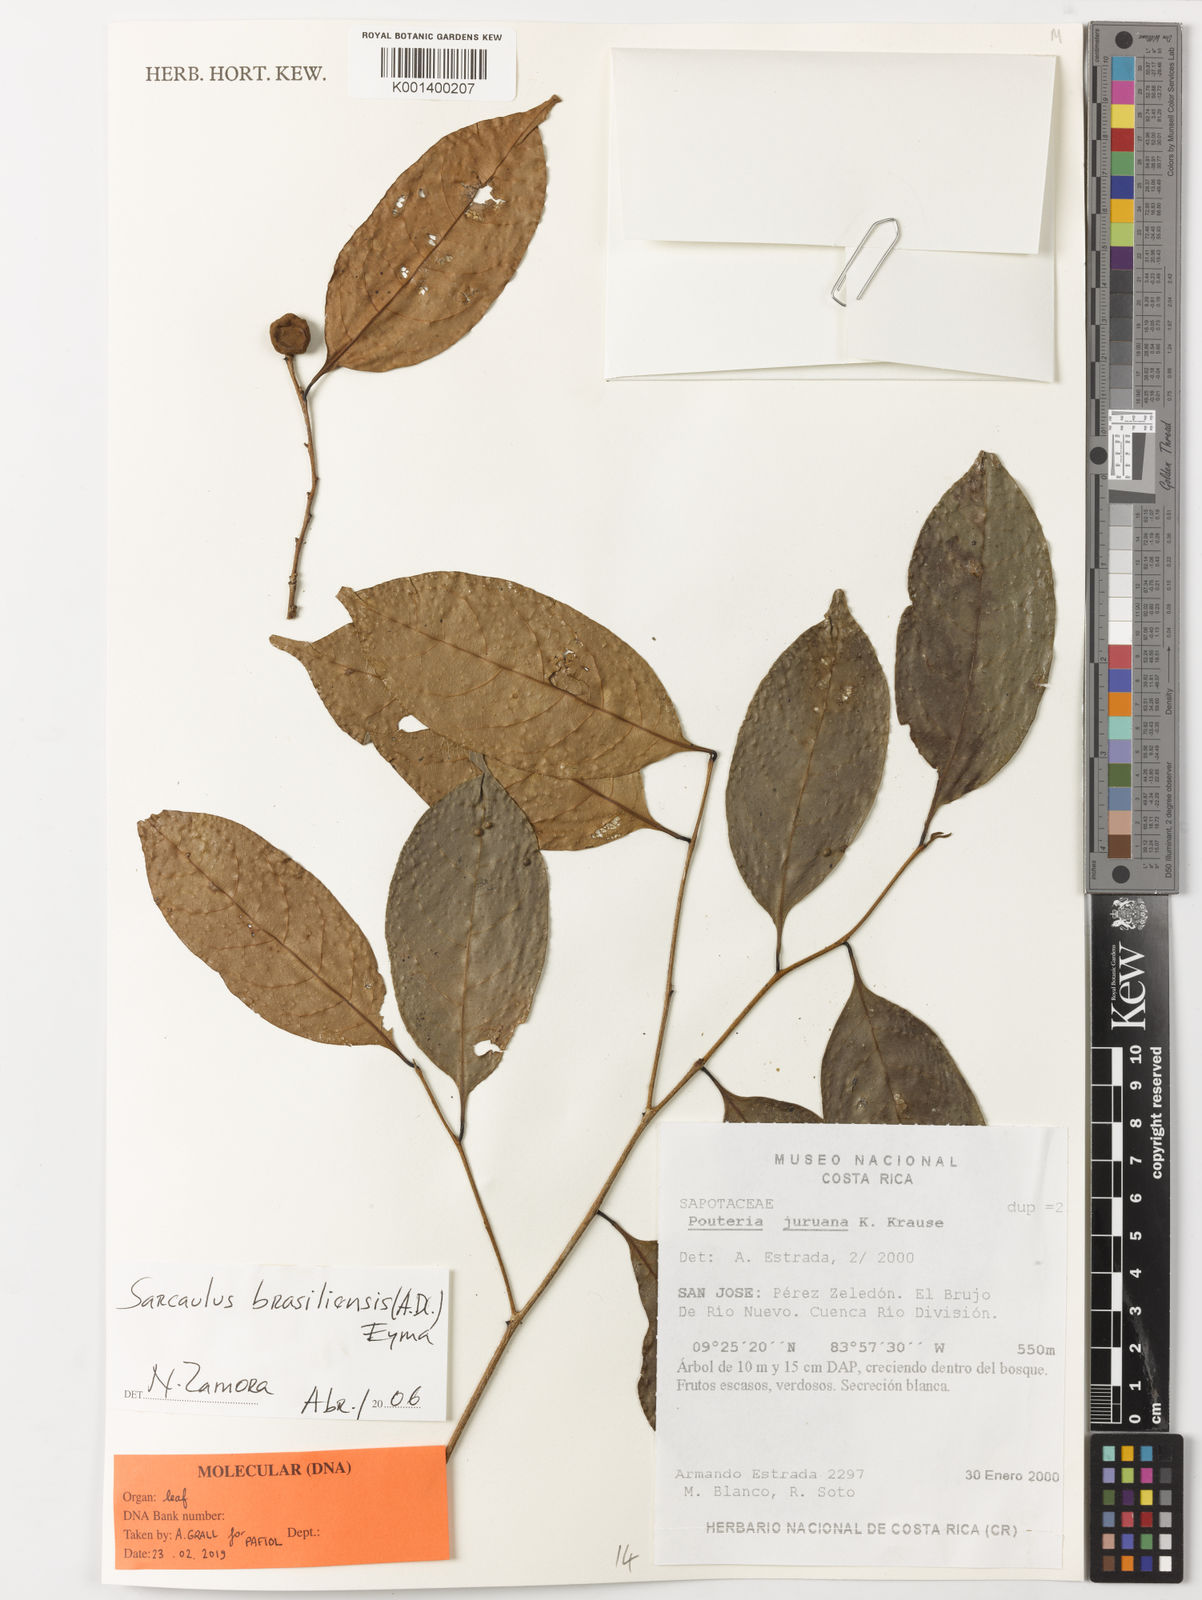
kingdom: Plantae
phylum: Tracheophyta
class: Magnoliopsida
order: Ericales
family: Sapotaceae
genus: Sarcaulus
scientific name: Sarcaulus brasiliensis
